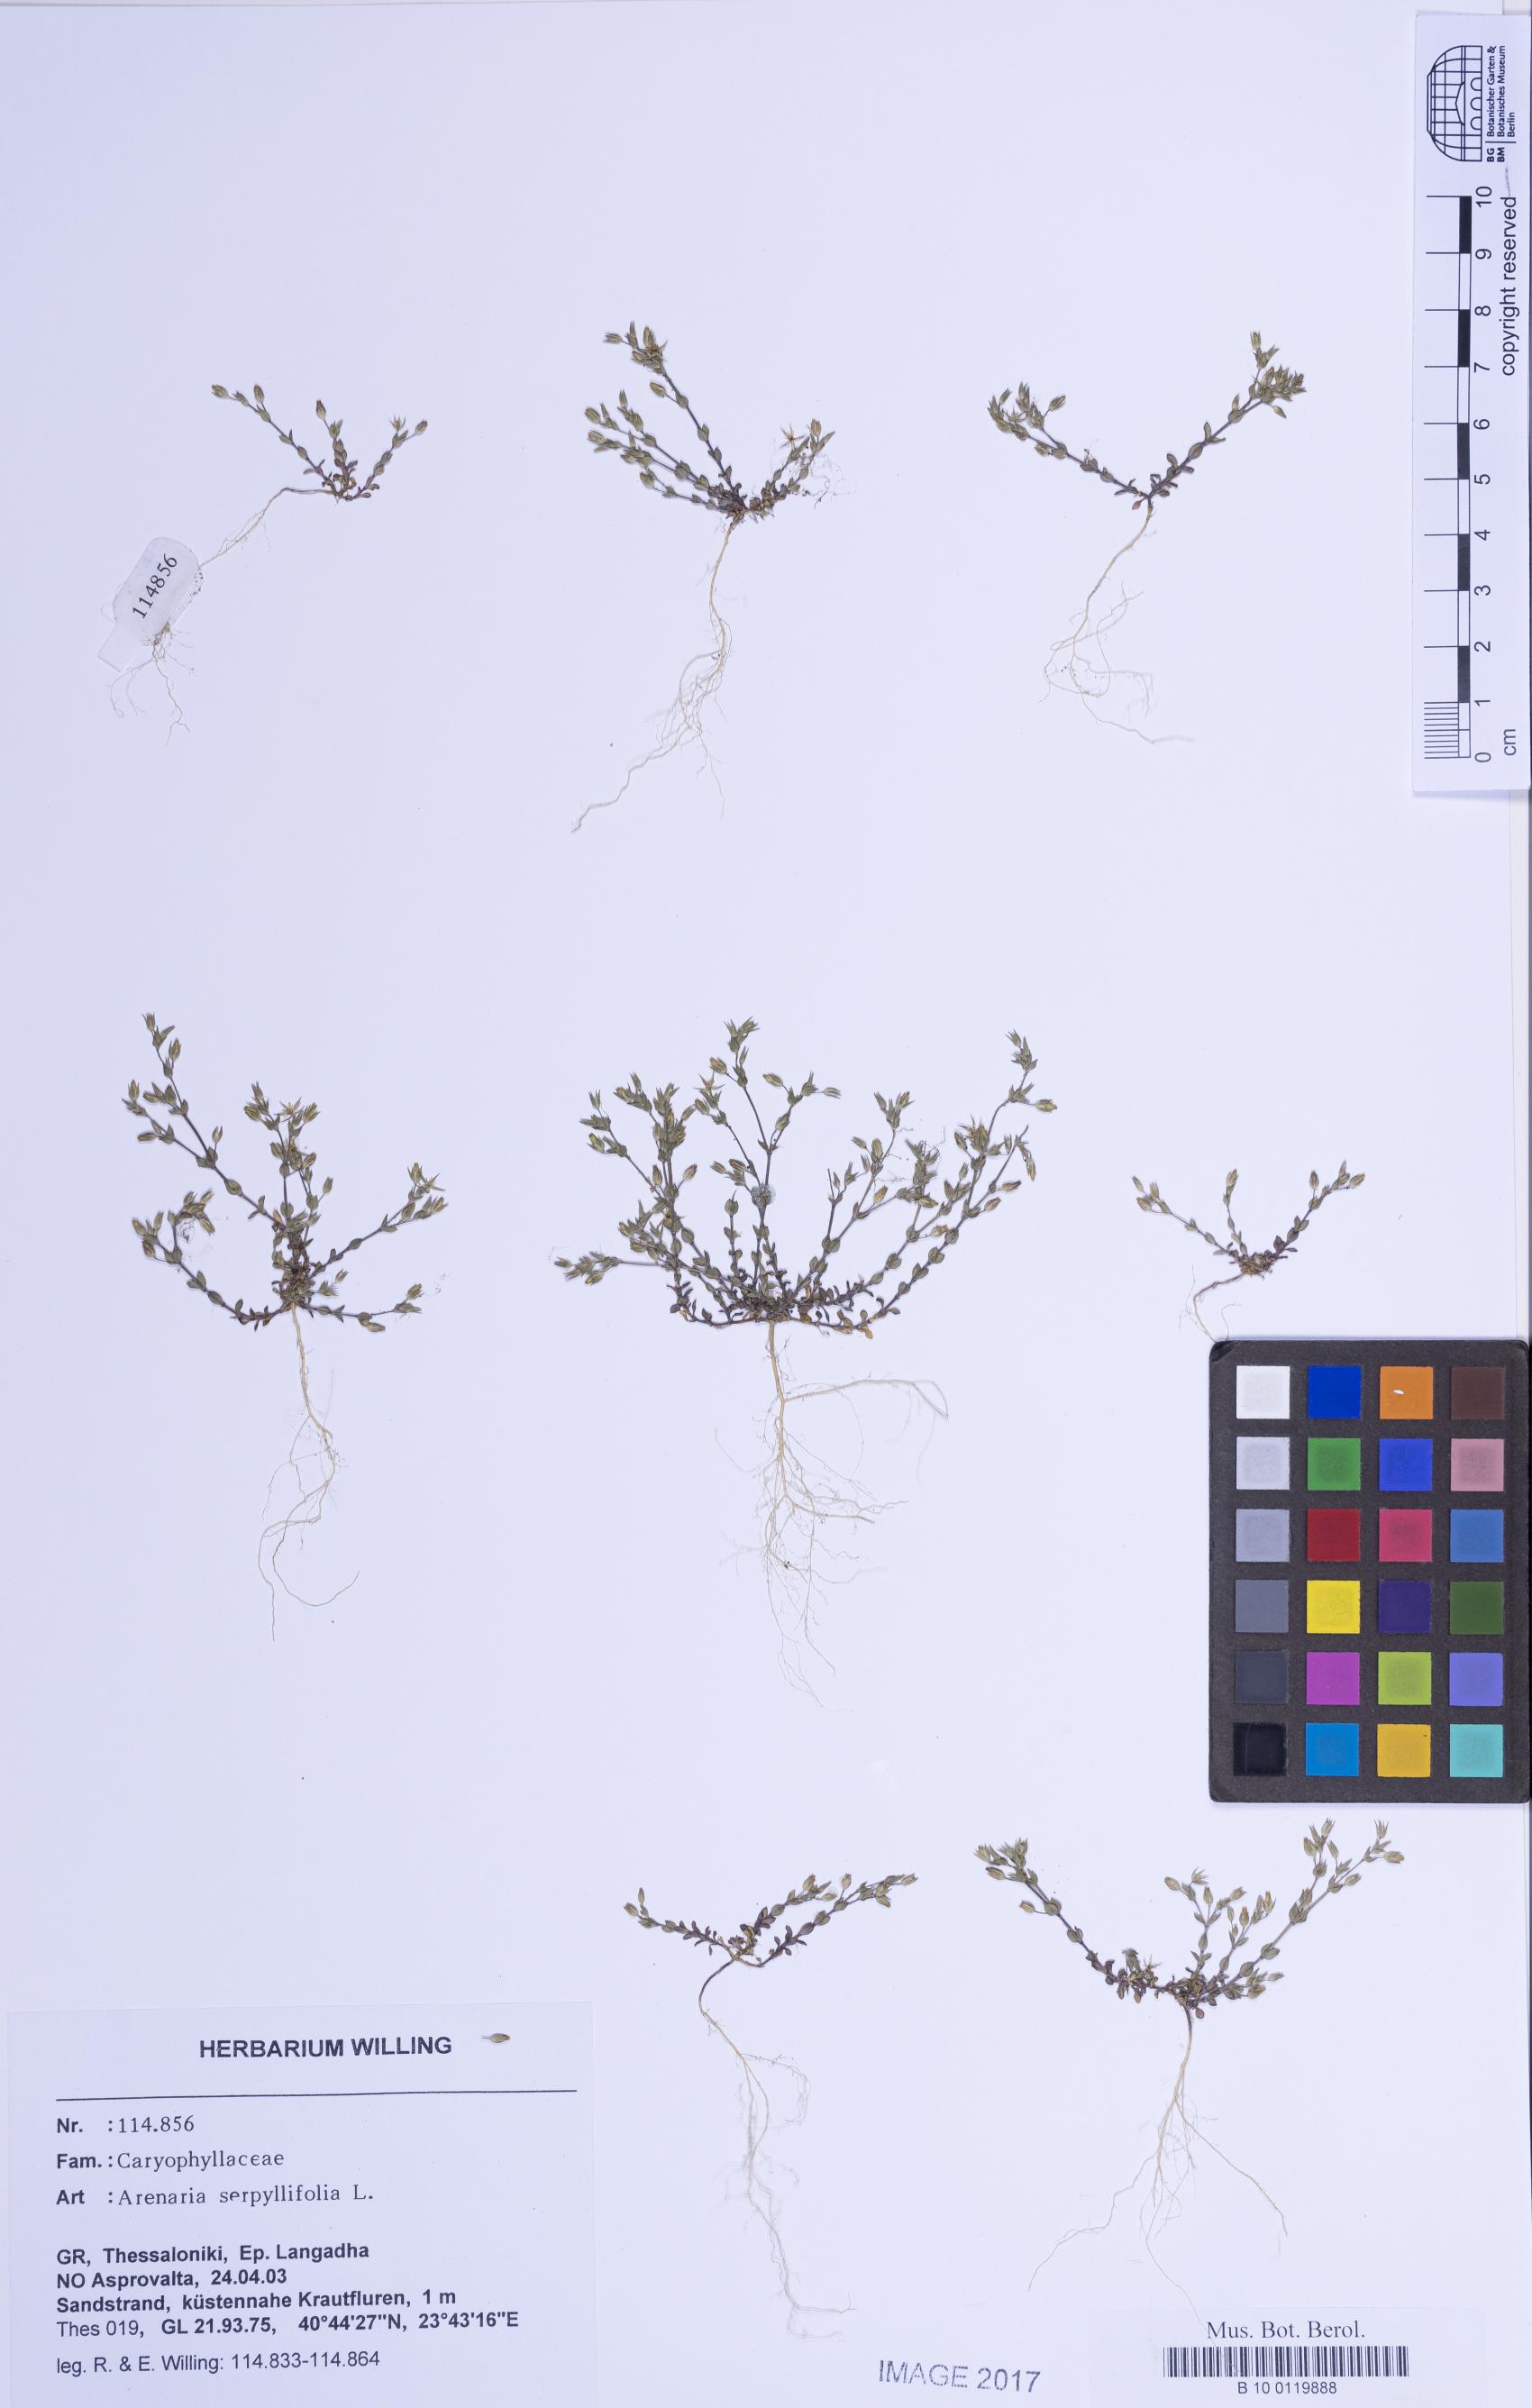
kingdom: Plantae
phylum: Tracheophyta
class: Magnoliopsida
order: Caryophyllales
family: Caryophyllaceae
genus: Arenaria
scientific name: Arenaria leptoclados
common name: Thyme-leaved sandwort
